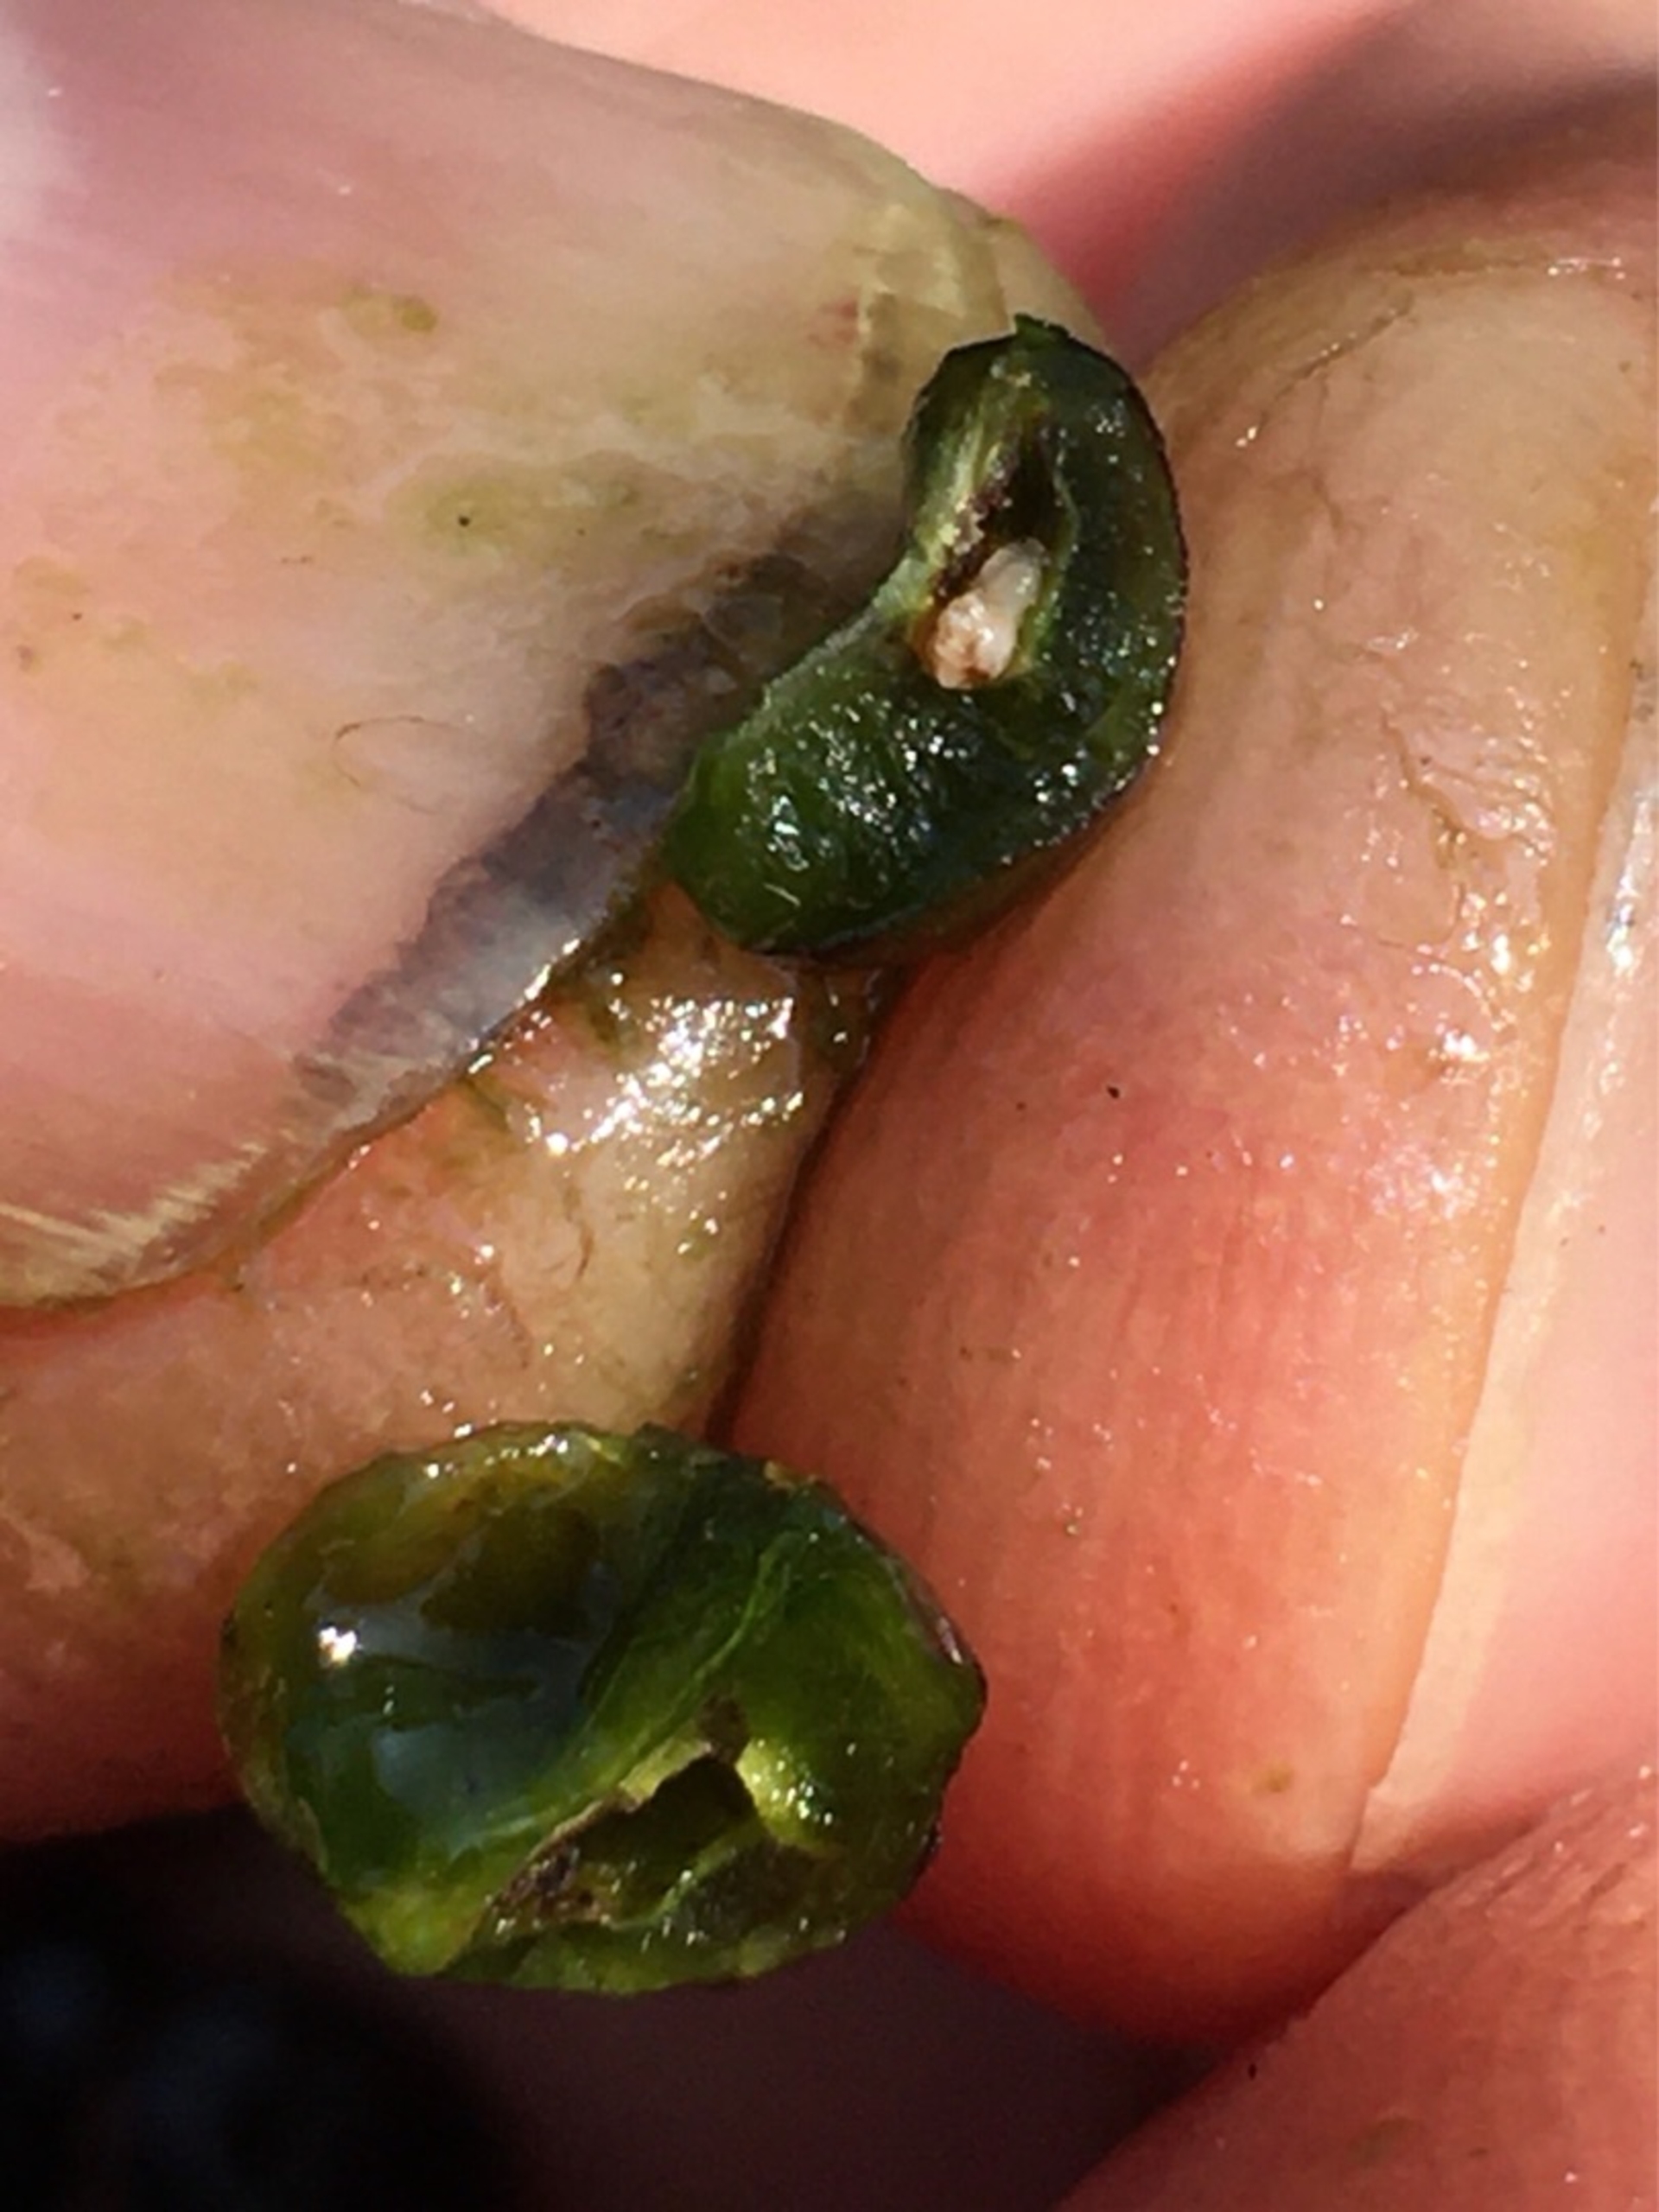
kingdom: Animalia
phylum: Arthropoda
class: Insecta
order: Diptera
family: Cecidomyiidae
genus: Wachtliella
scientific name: Wachtliella krumbholzi
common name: Vrietorngalmyg
